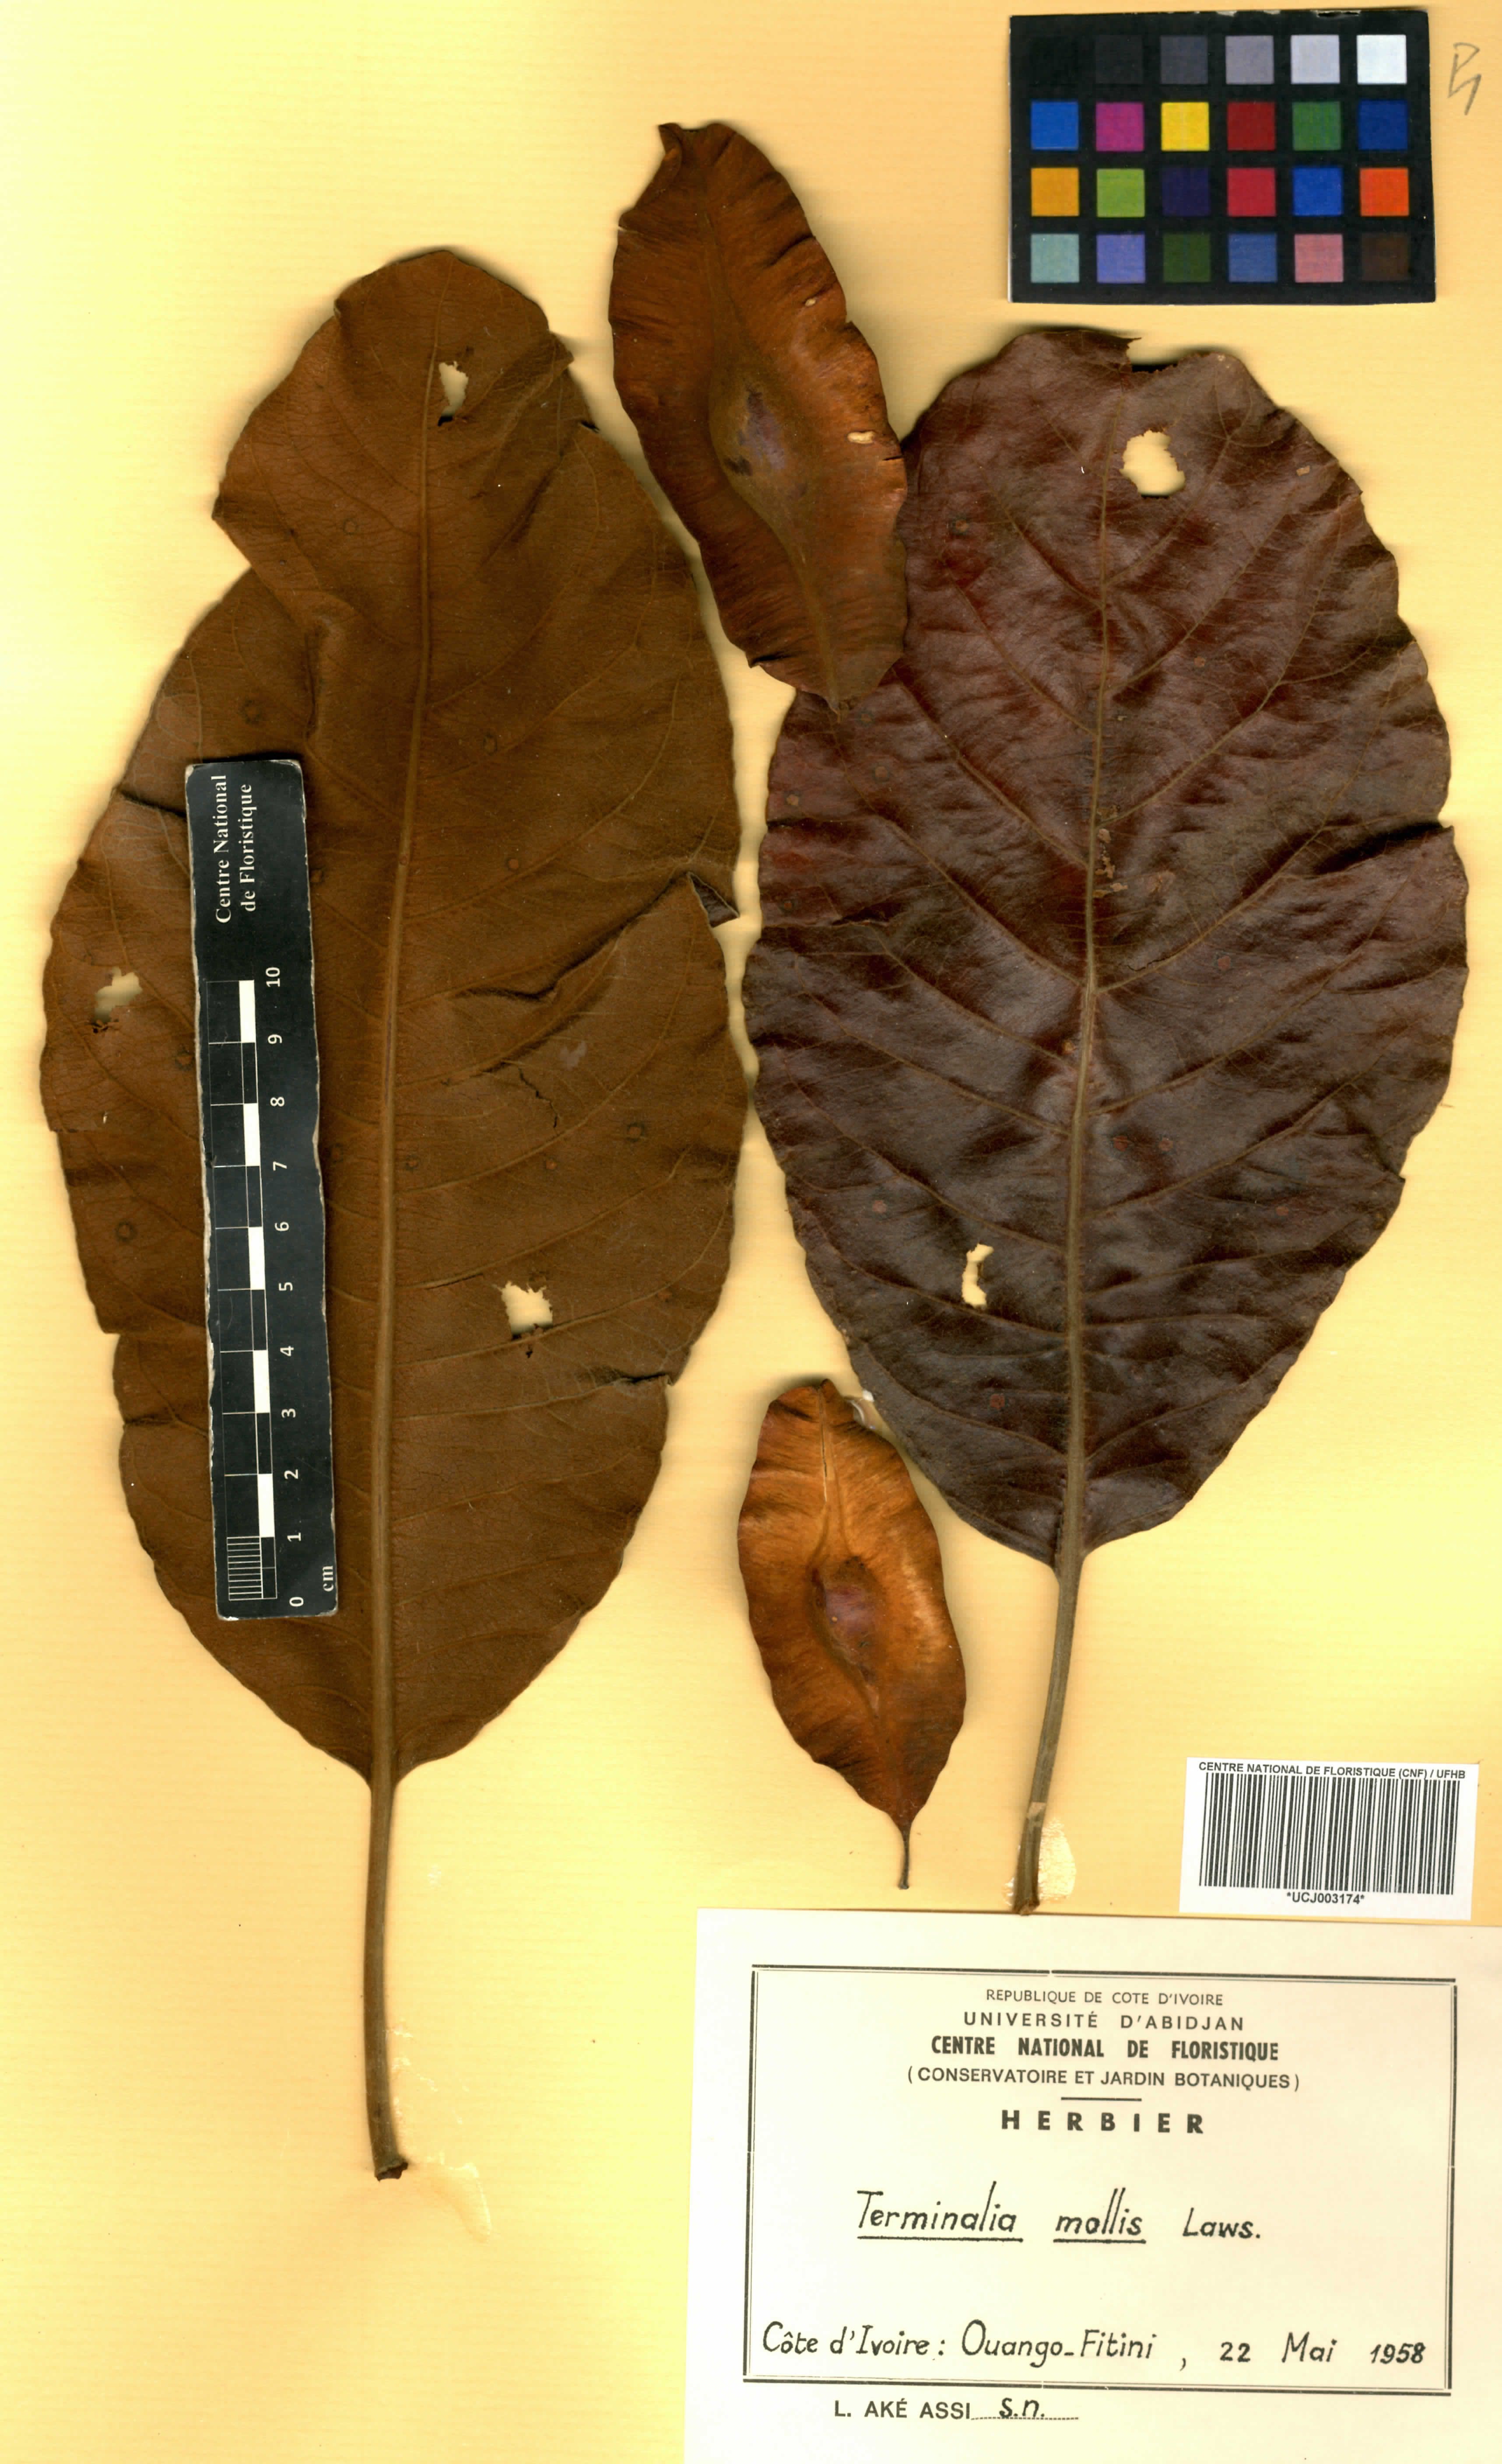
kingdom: Plantae
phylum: Tracheophyta
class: Magnoliopsida
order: Myrtales
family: Combretaceae
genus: Terminalia
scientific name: Terminalia mollis
